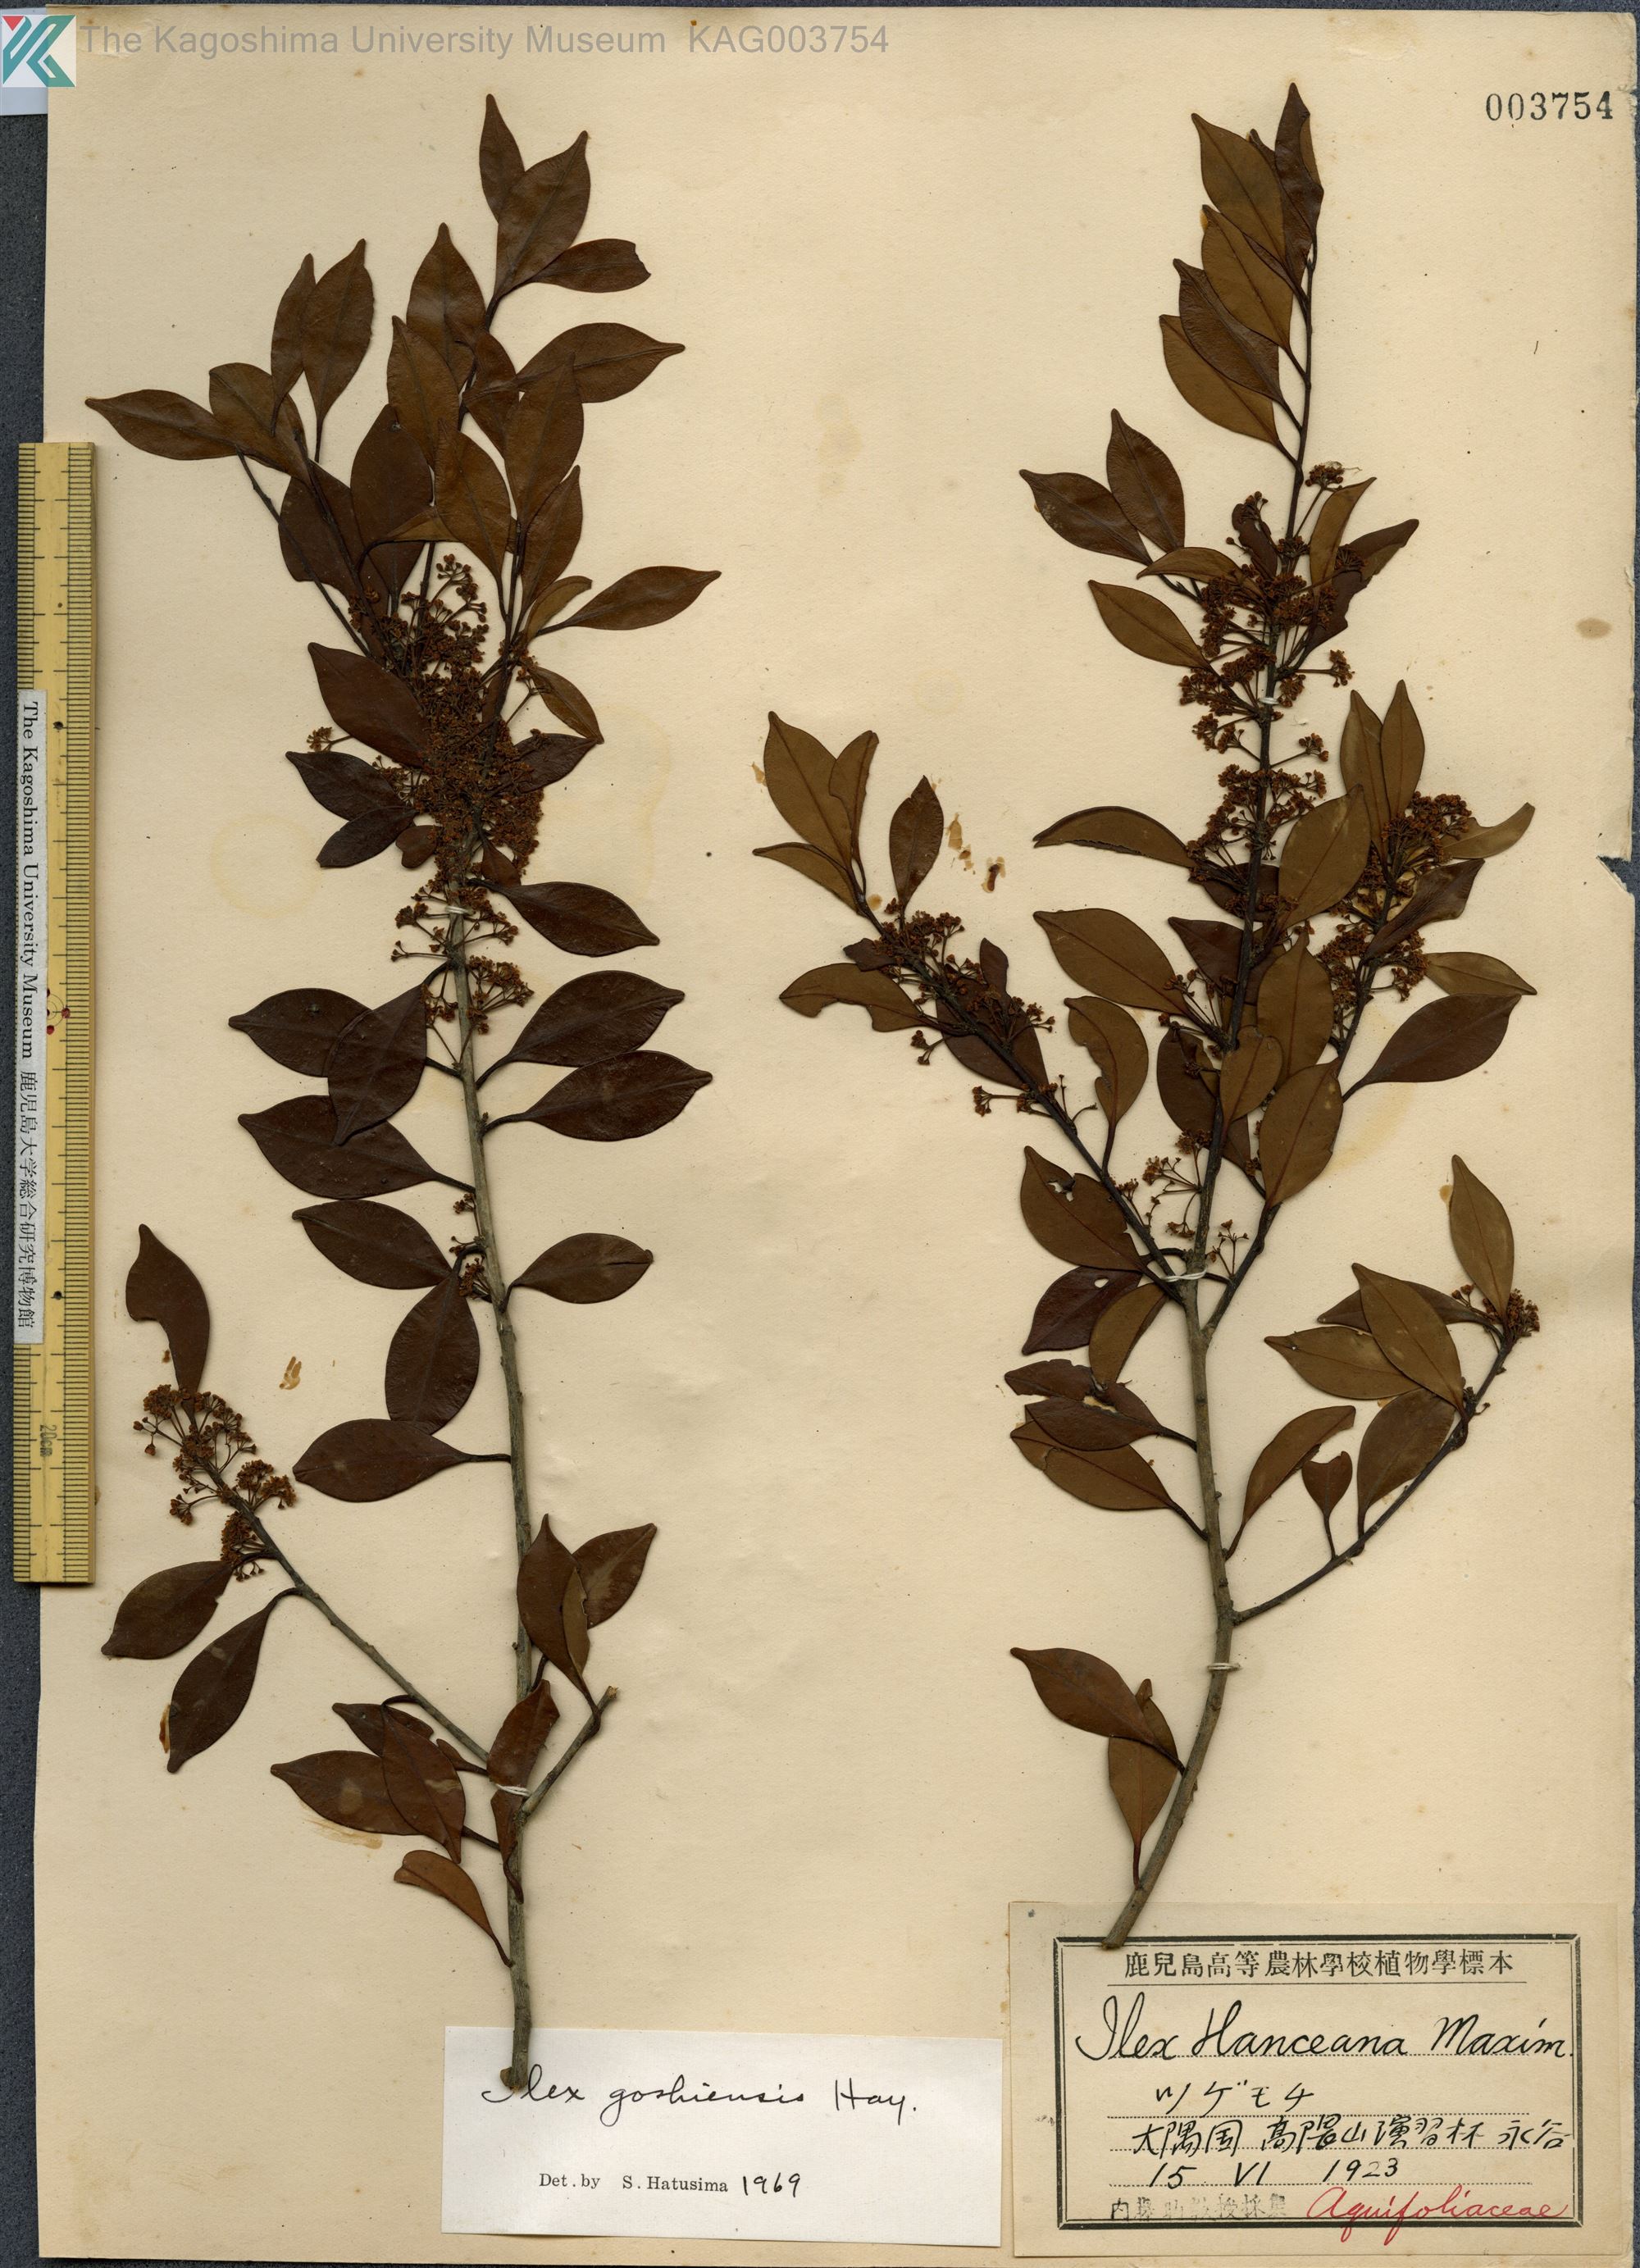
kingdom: Plantae
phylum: Tracheophyta
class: Magnoliopsida
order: Aquifoliales
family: Aquifoliaceae
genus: Ilex
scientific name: Ilex goshiensis
